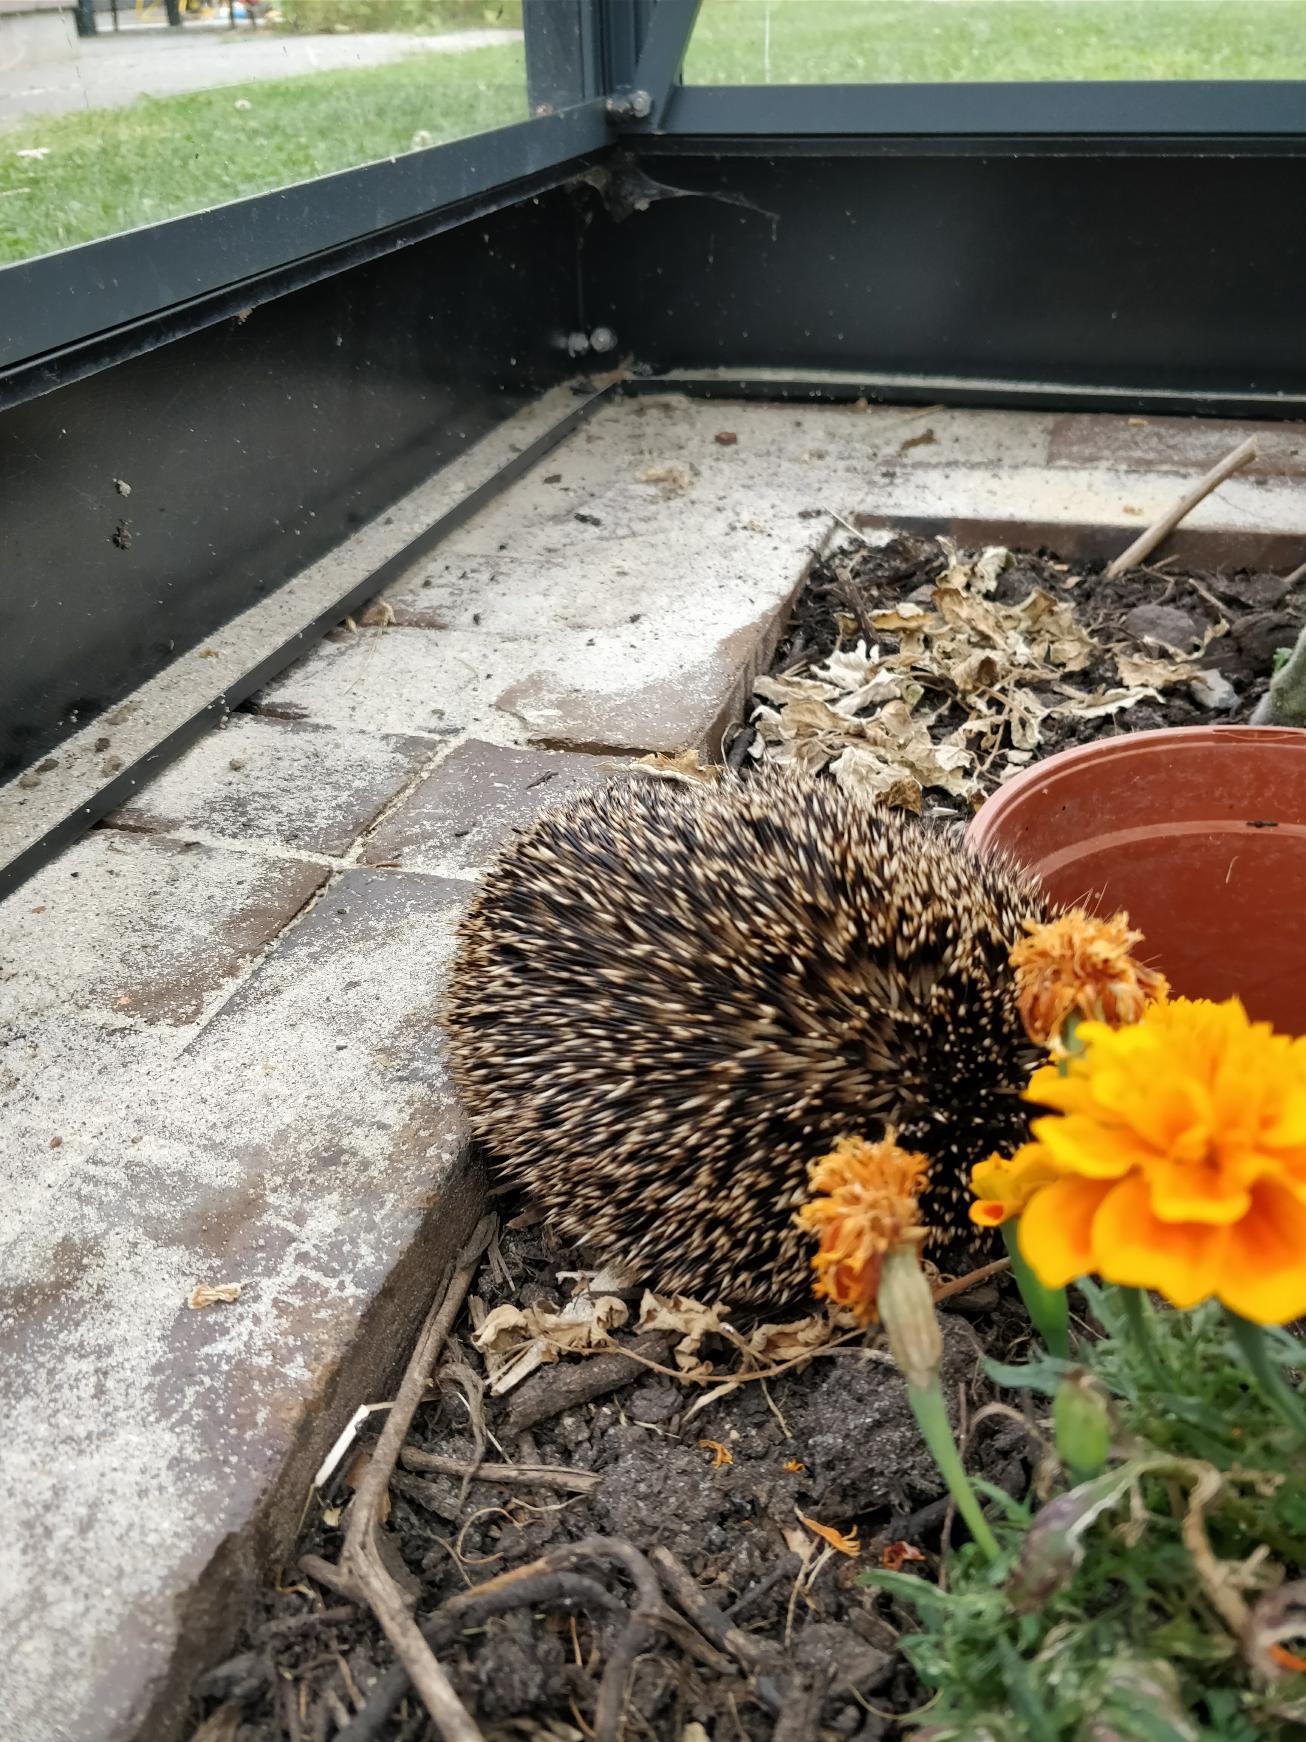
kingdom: Animalia
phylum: Chordata
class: Mammalia
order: Erinaceomorpha
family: Erinaceidae
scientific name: Erinaceidae
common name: Pindsvin
